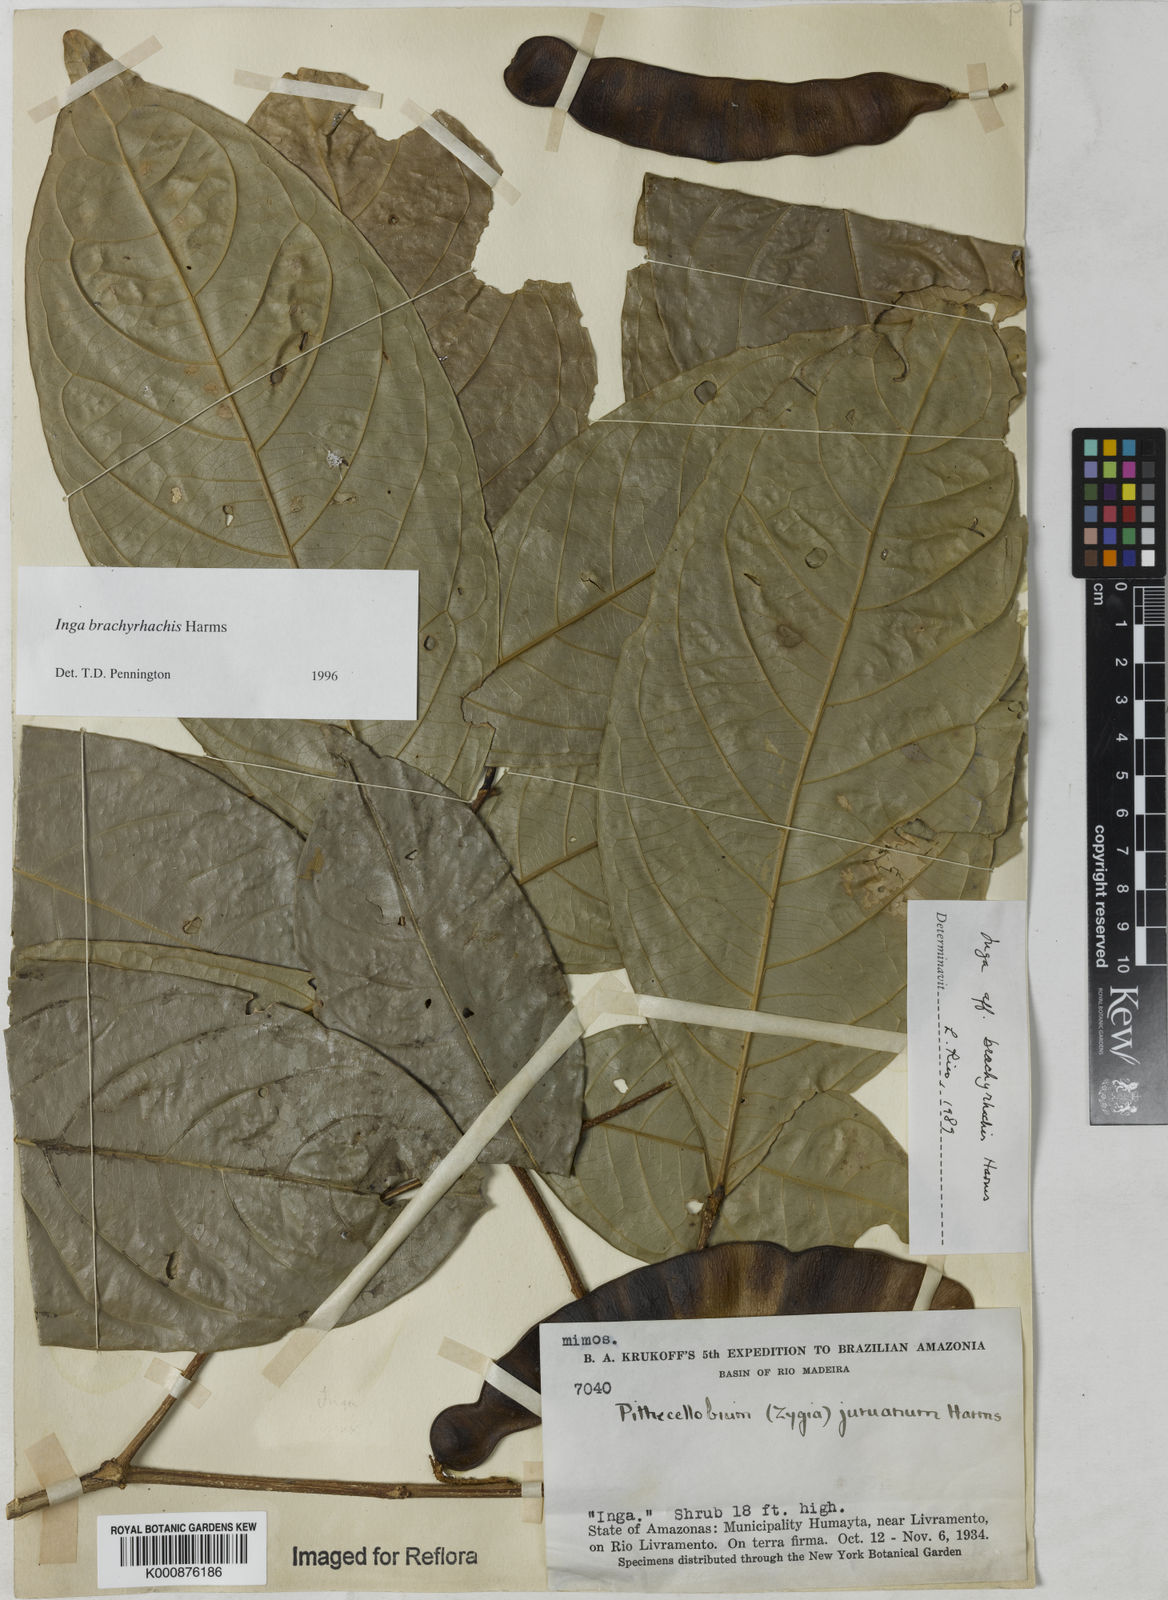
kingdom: Plantae
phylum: Tracheophyta
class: Magnoliopsida
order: Fabales
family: Fabaceae
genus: Inga
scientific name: Inga brachyrhachis
